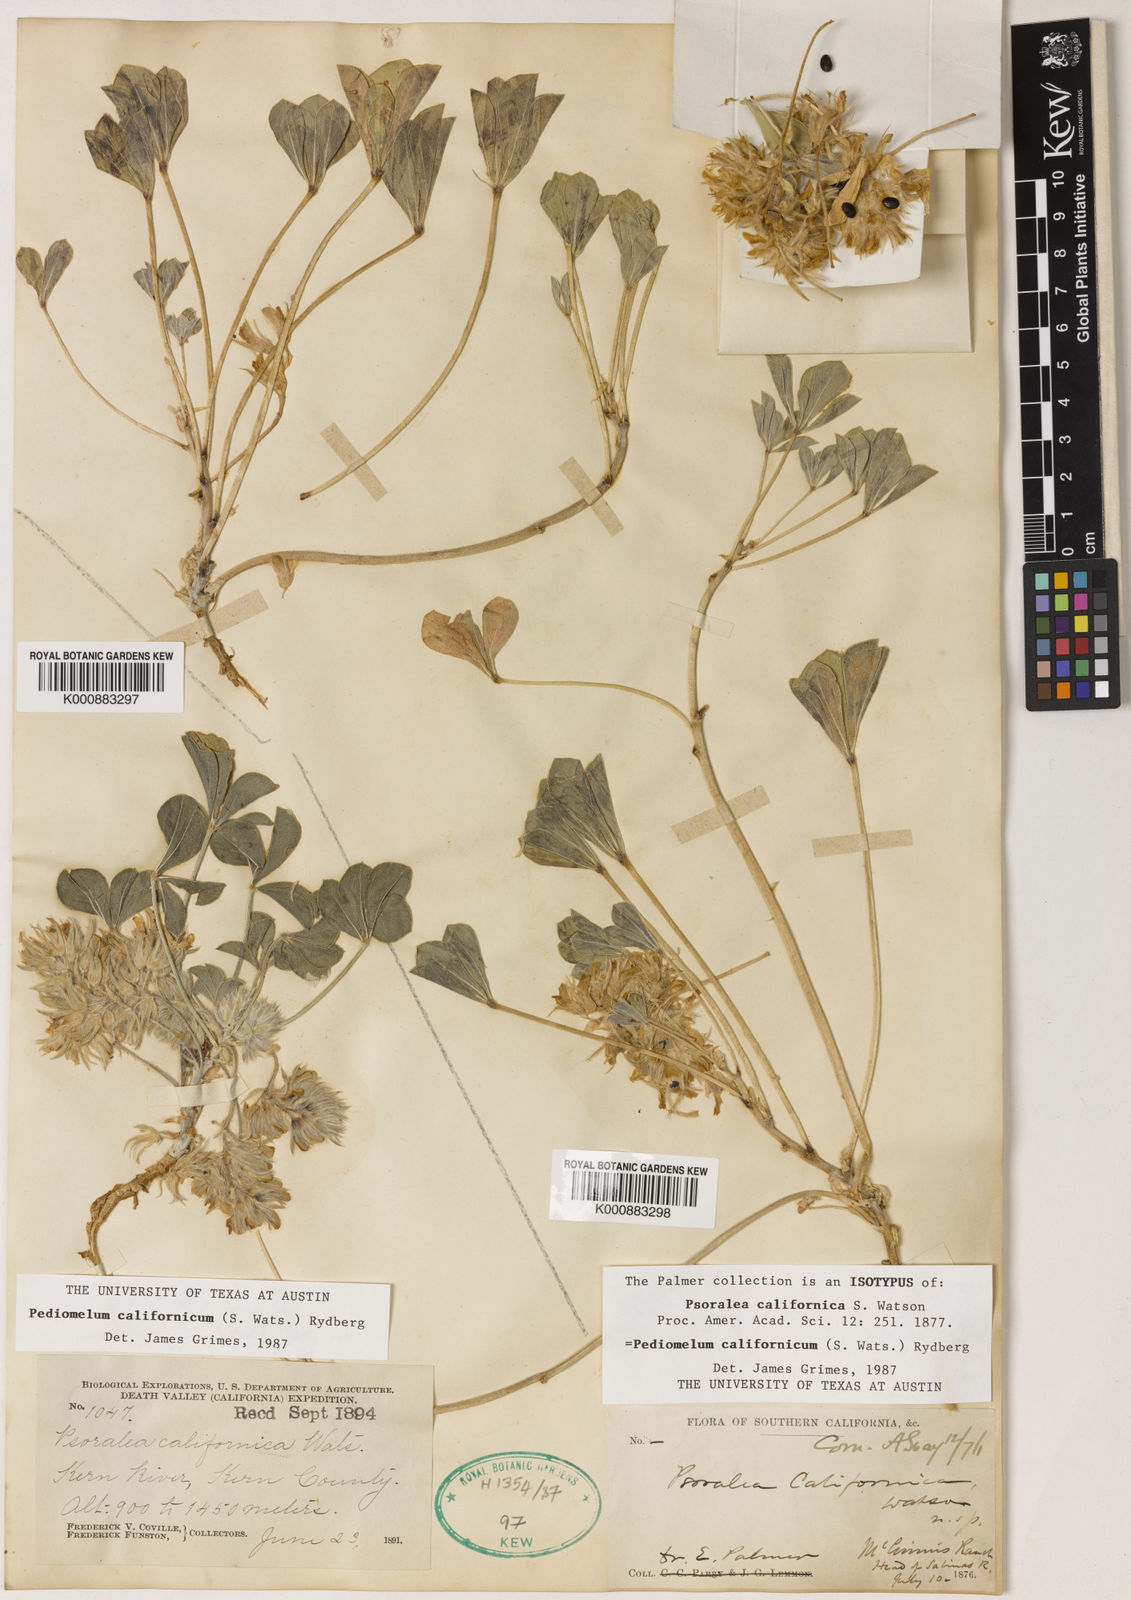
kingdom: Plantae
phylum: Tracheophyta
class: Magnoliopsida
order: Fabales
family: Fabaceae
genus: Pediomelum
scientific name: Pediomelum californicum
